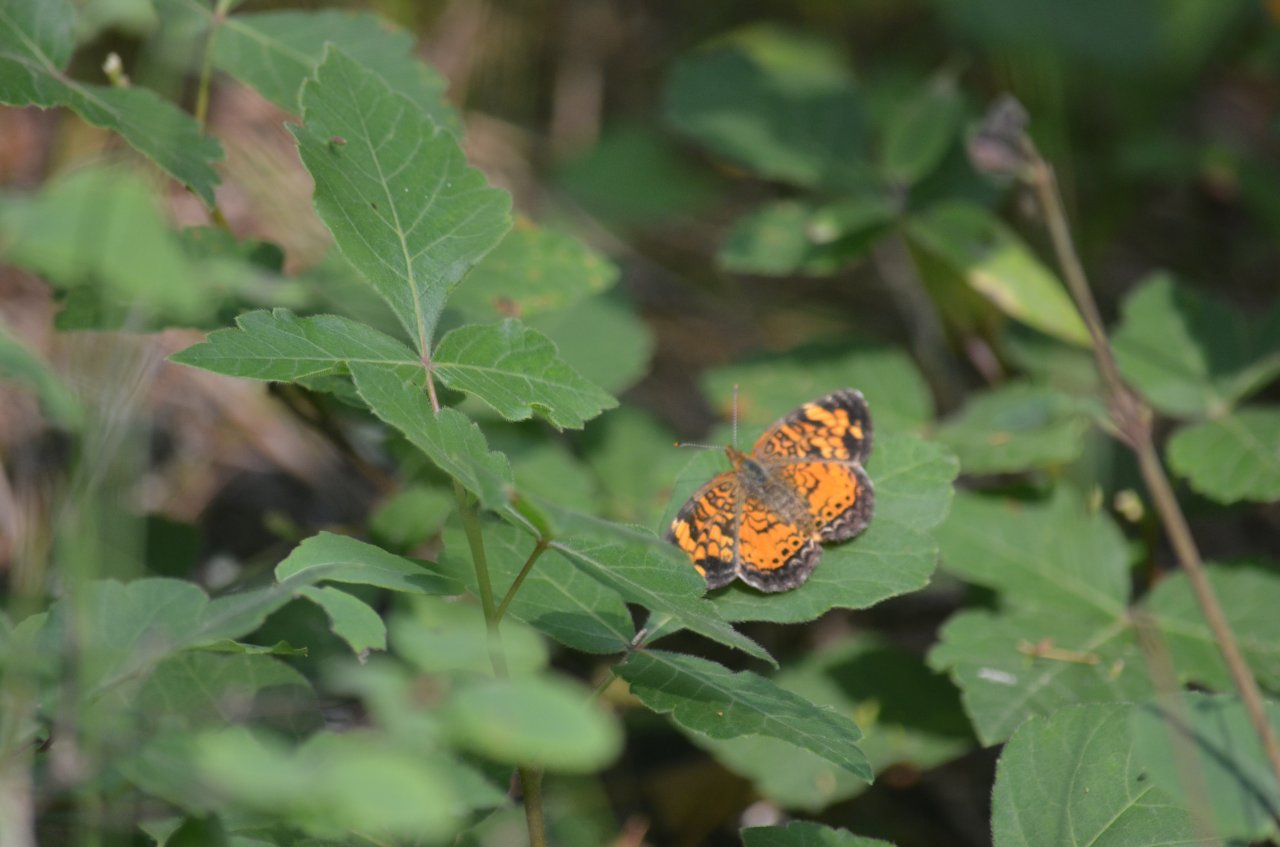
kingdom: Animalia
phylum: Arthropoda
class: Insecta
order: Lepidoptera
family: Nymphalidae
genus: Phyciodes
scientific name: Phyciodes tharos
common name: Northern Crescent
